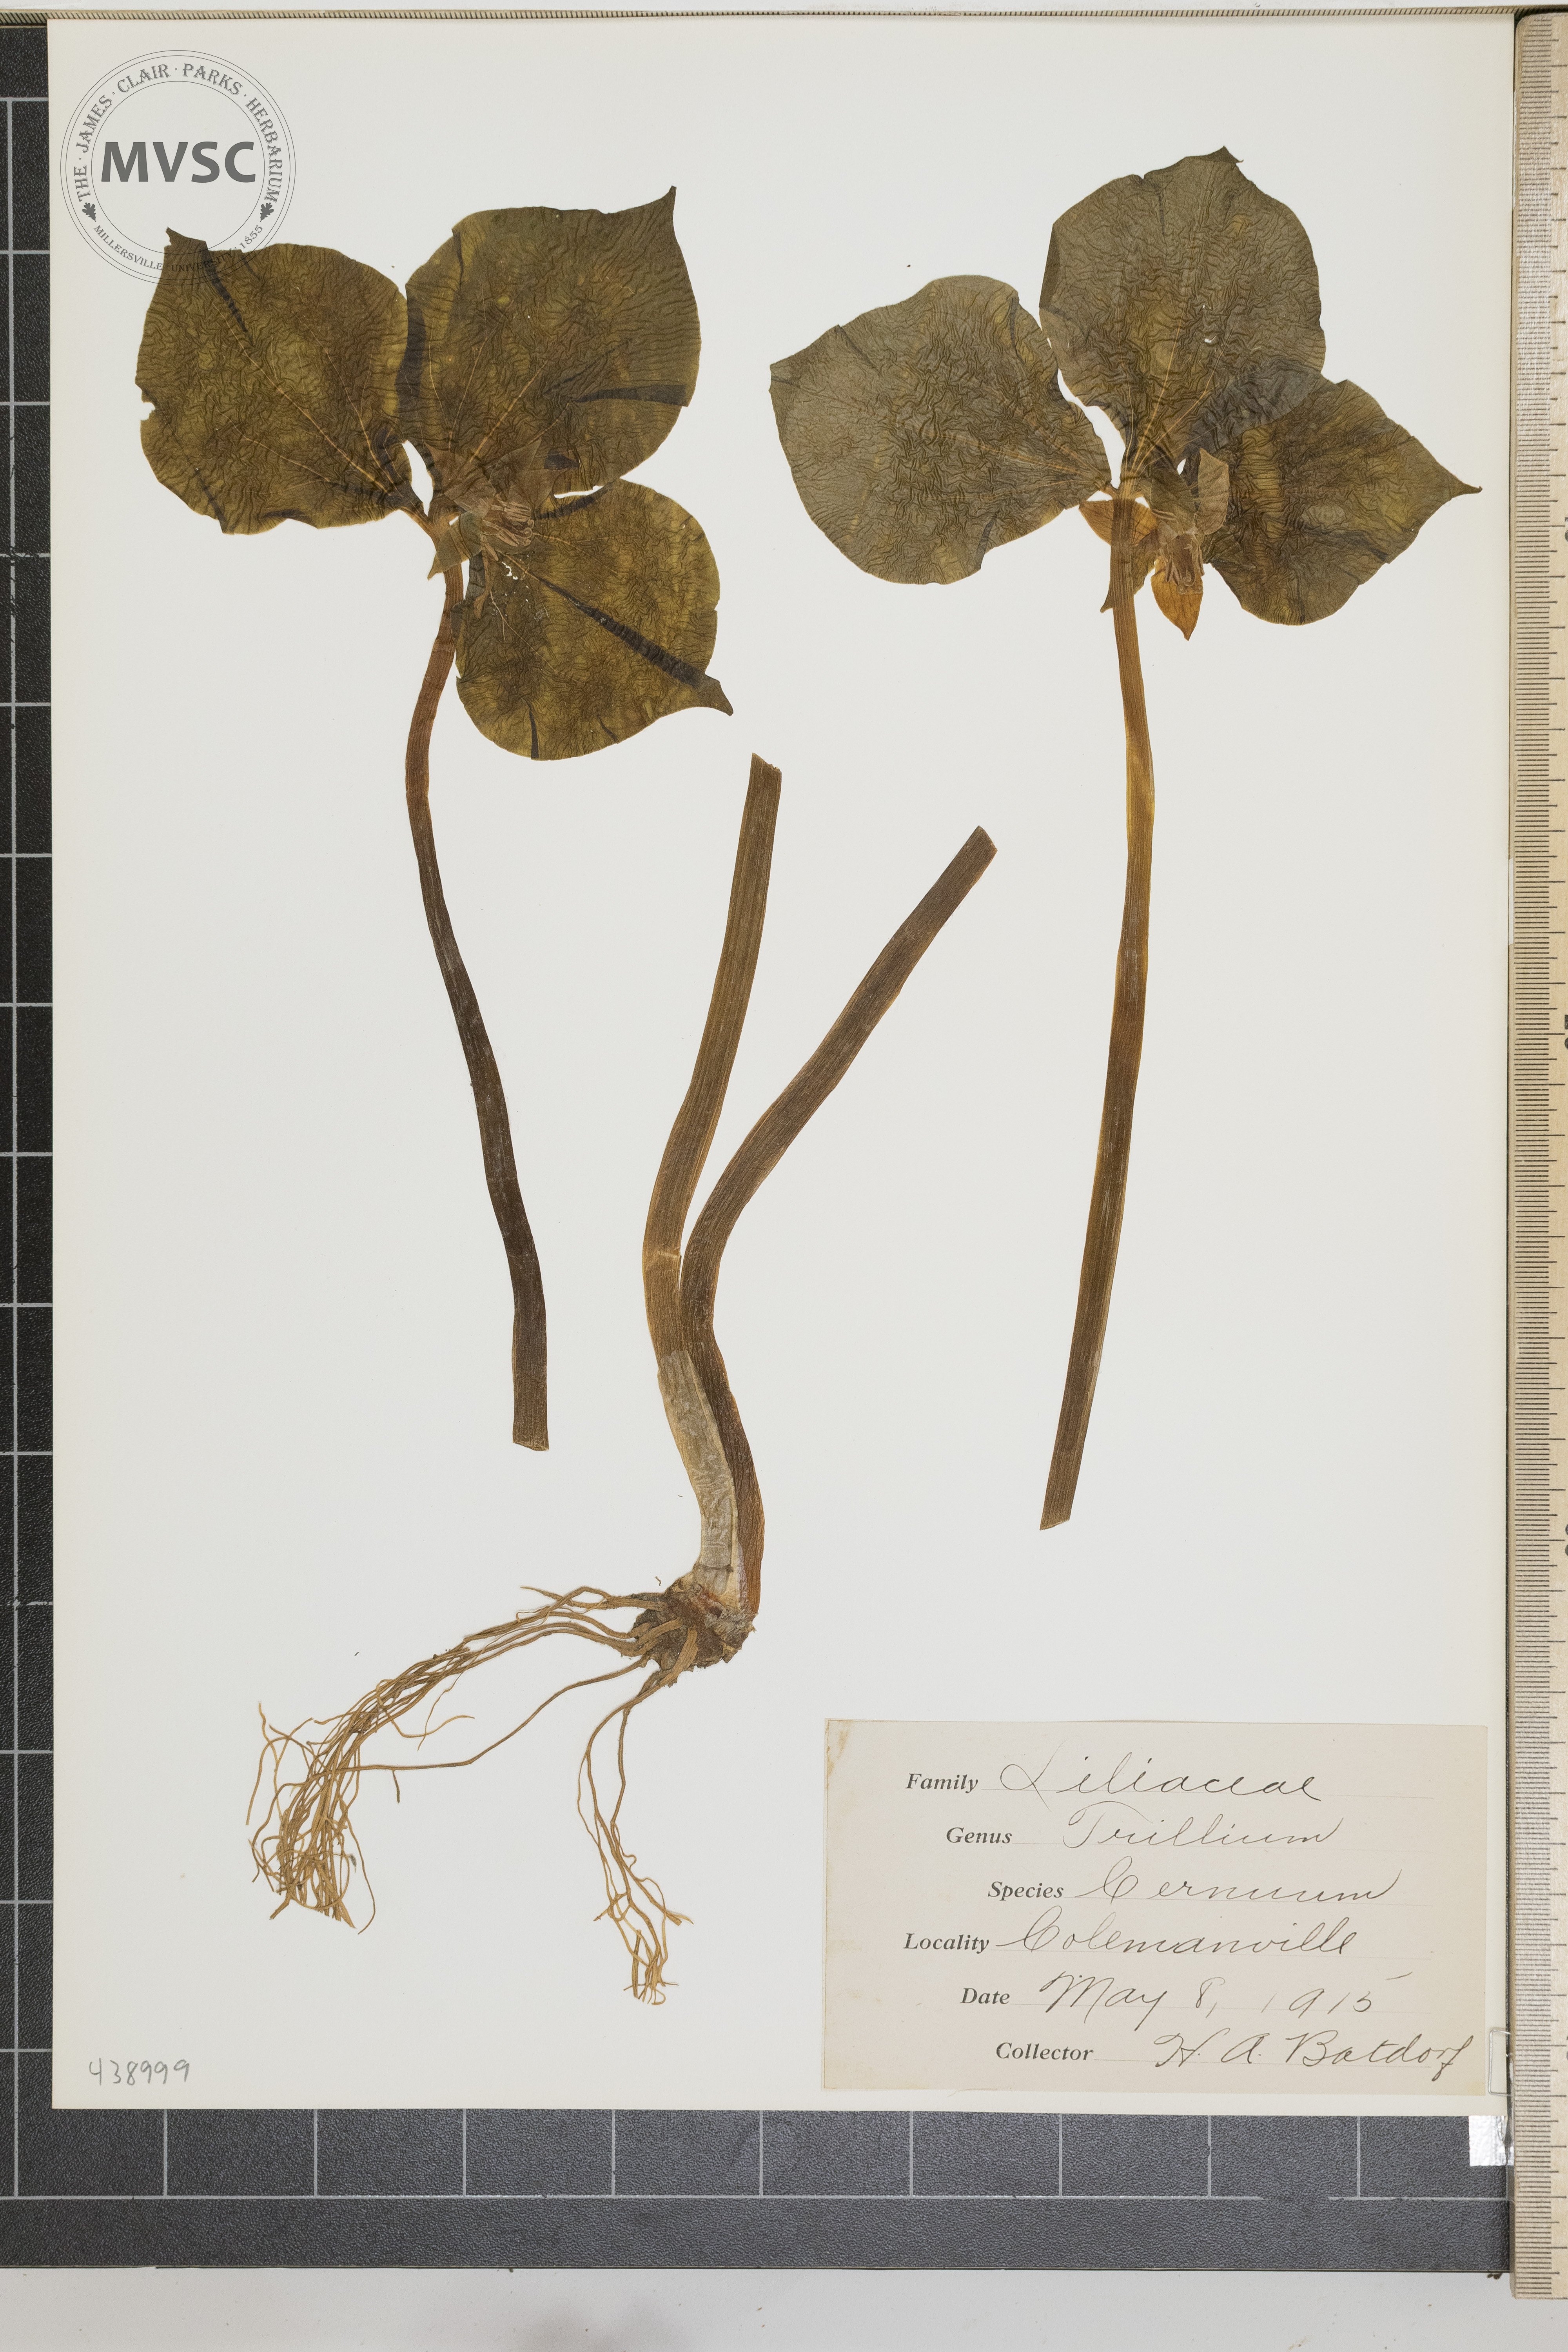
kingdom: Plantae
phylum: Tracheophyta
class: Liliopsida
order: Liliales
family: Melanthiaceae
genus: Trillium
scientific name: Trillium cernuum
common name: Nodding trillium
